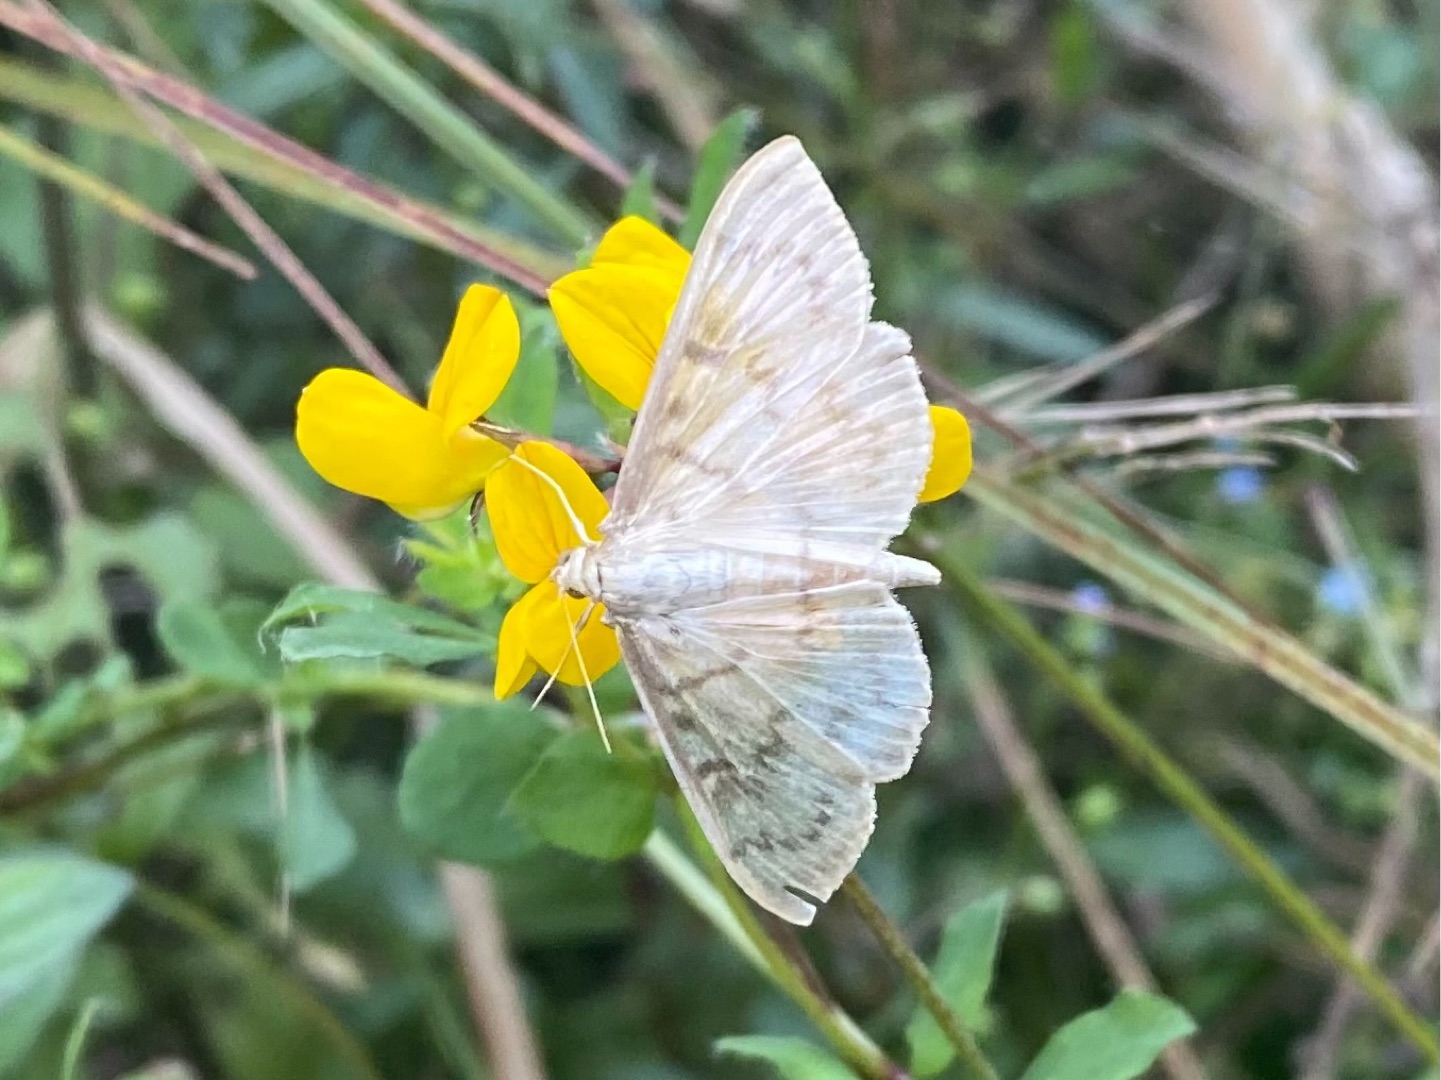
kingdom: Animalia
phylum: Arthropoda
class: Insecta
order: Lepidoptera
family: Crambidae
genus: Patania
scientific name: Patania ruralis
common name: Perlemorshalvmøl
